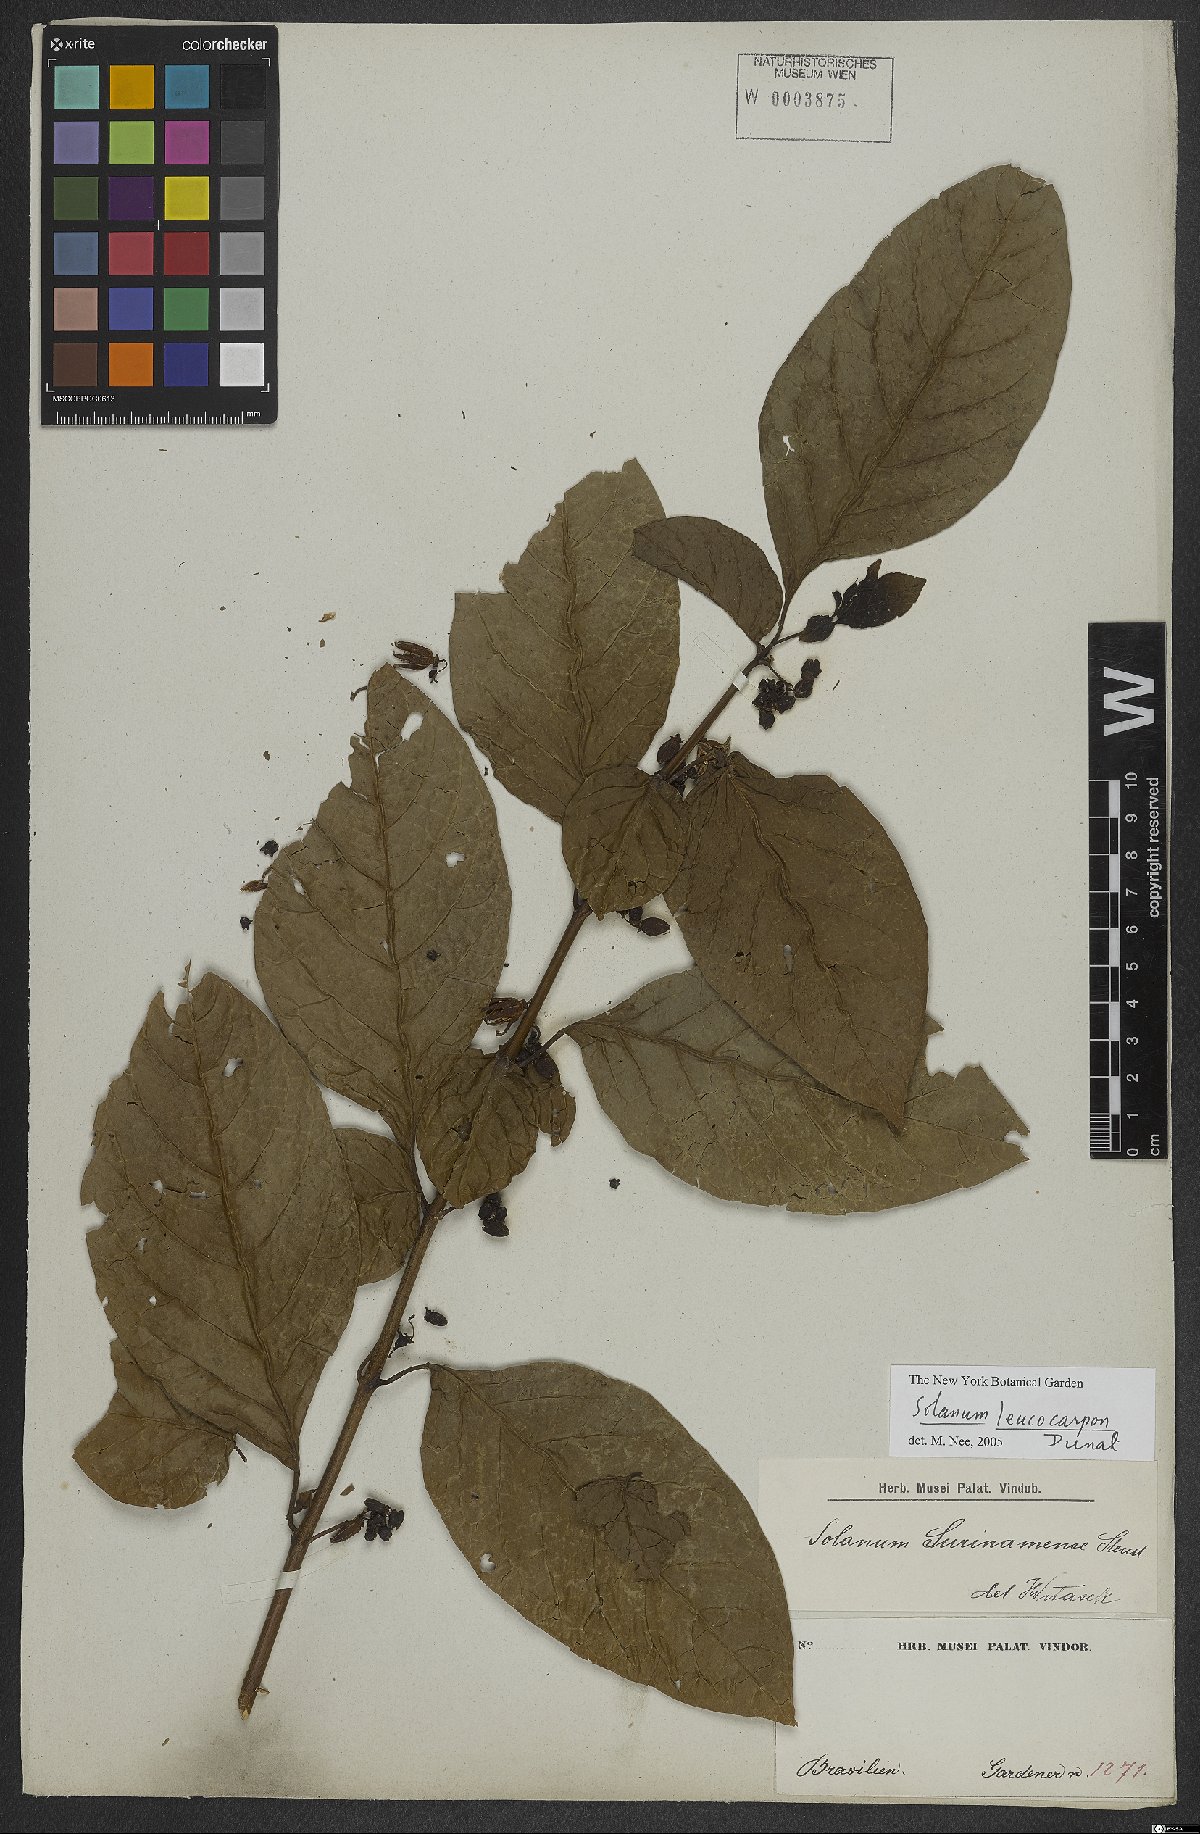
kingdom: Plantae
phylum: Tracheophyta
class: Magnoliopsida
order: Solanales
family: Solanaceae
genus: Solanum
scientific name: Solanum leucocarpon
